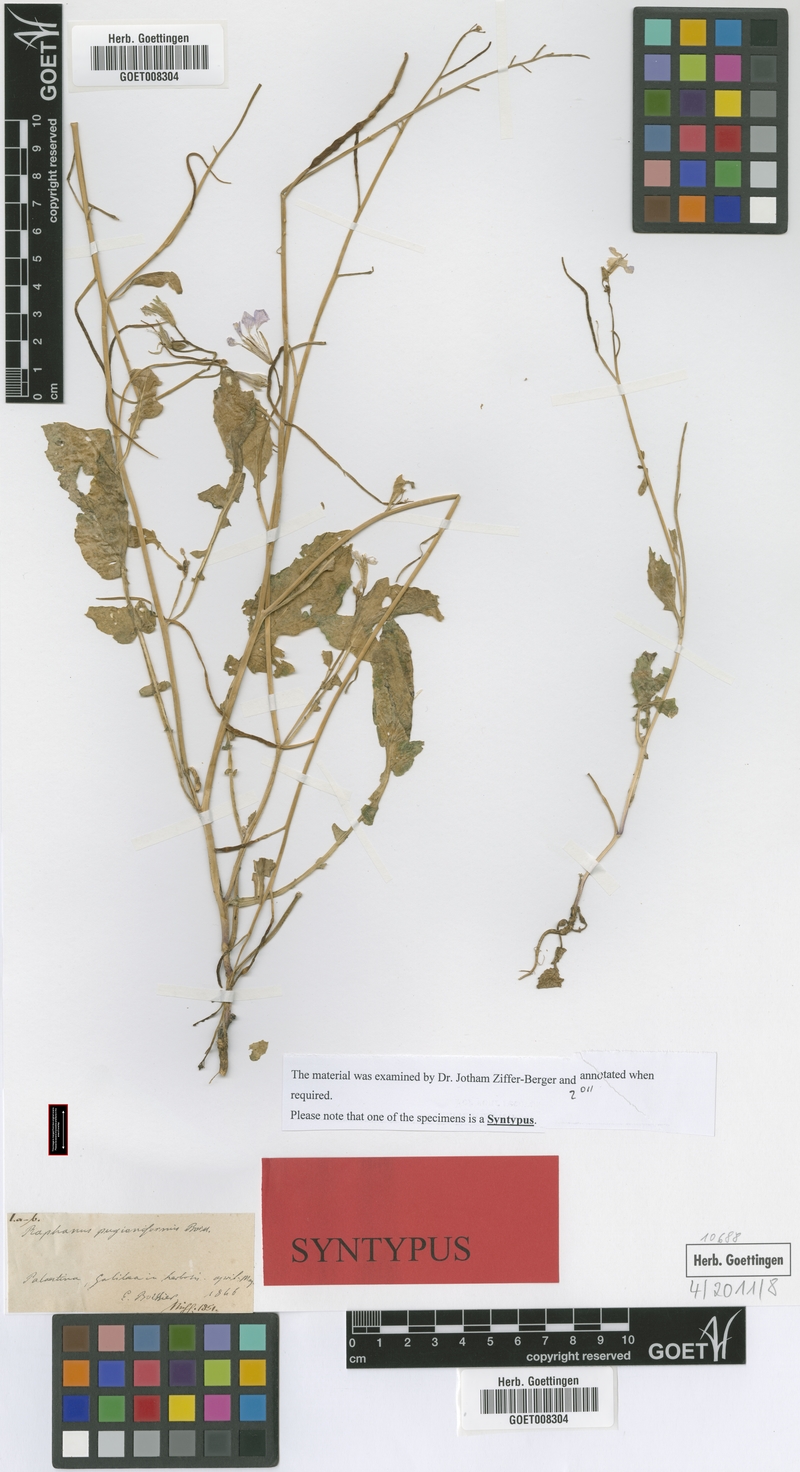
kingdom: Plantae
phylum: Tracheophyta
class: Magnoliopsida
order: Brassicales
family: Brassicaceae
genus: Raphanus
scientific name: Raphanus raphanistrum
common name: Wild radish
